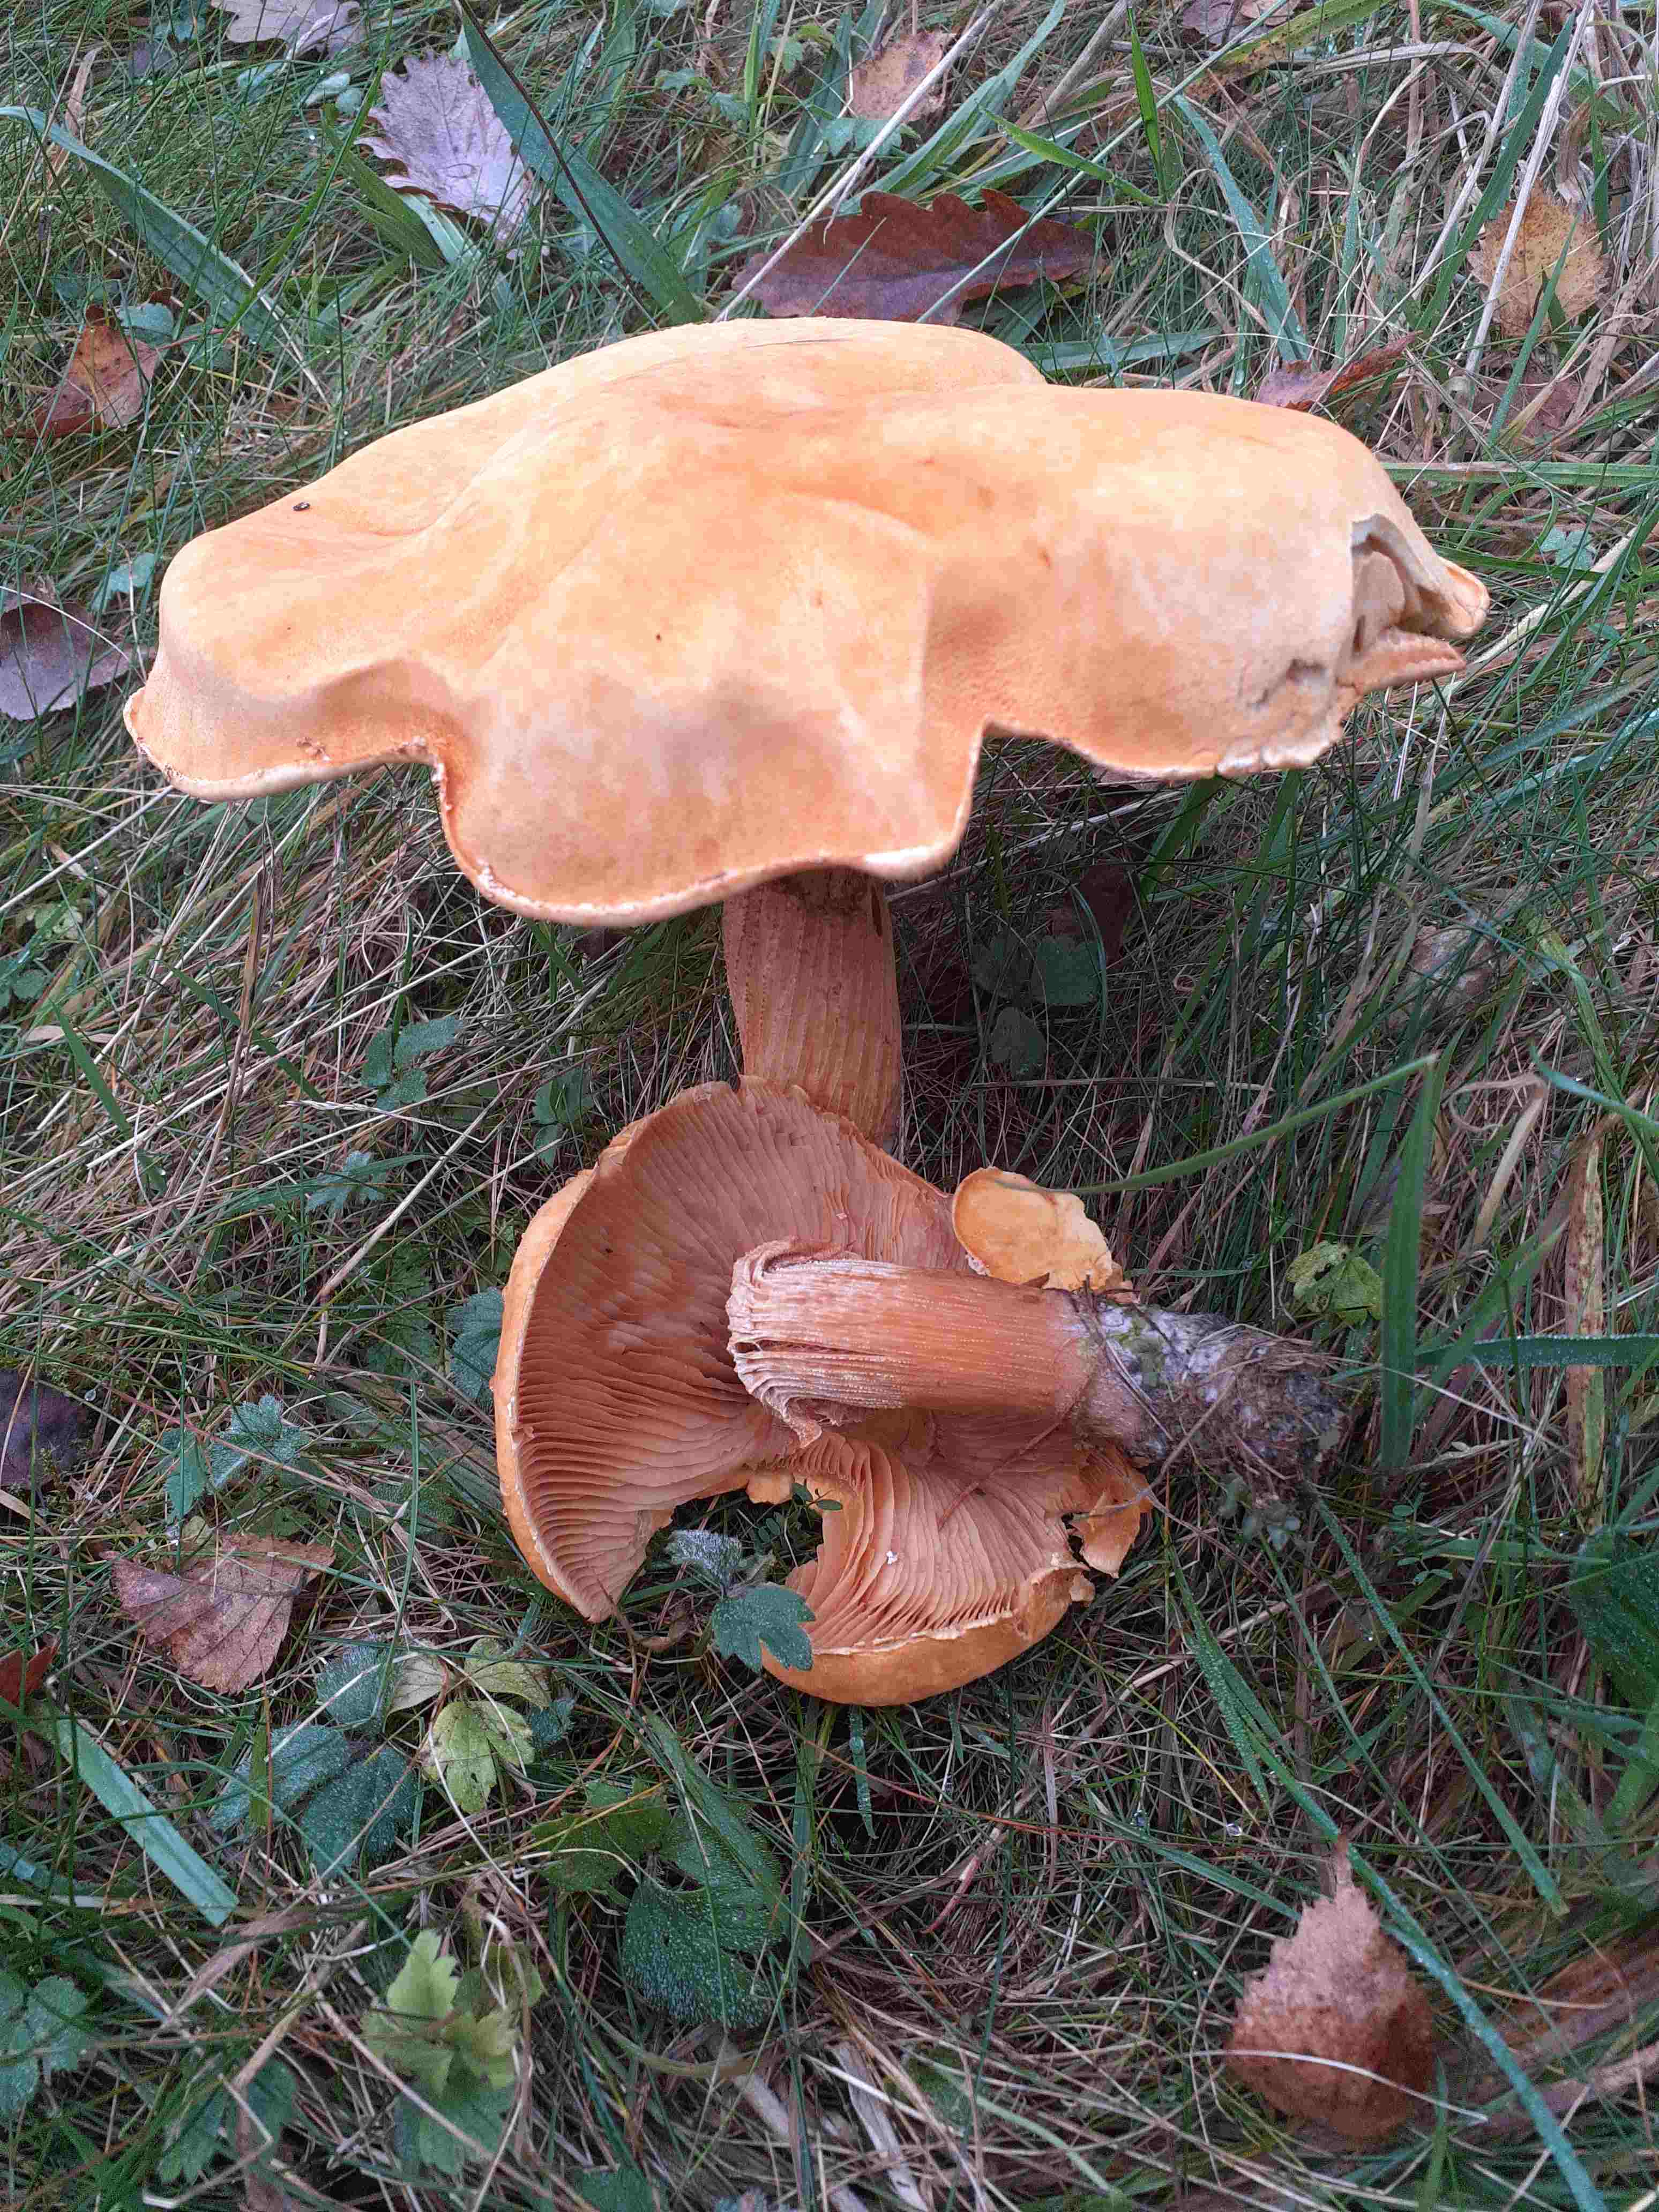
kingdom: Fungi
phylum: Basidiomycota
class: Agaricomycetes
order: Agaricales
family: Tricholomataceae
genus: Phaeolepiota
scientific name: Phaeolepiota aurea
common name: gyldenhat
